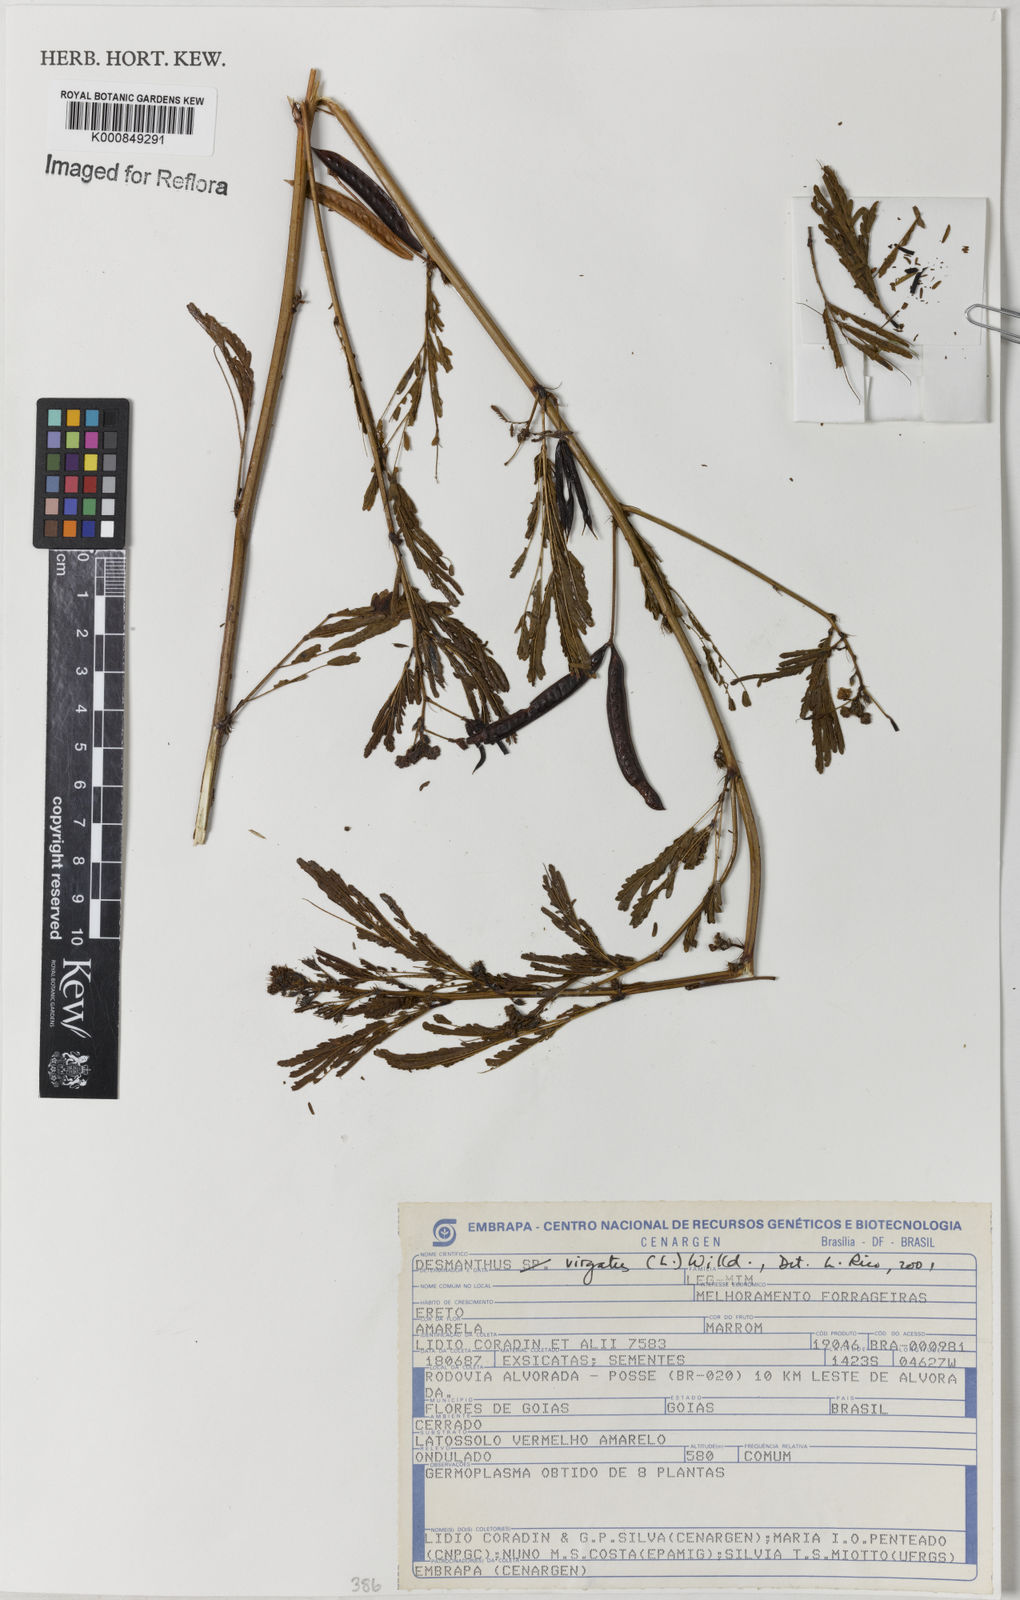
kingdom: Plantae
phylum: Tracheophyta
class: Magnoliopsida
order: Fabales
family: Fabaceae
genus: Desmanthus
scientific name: Desmanthus virgatus
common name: Wild tantan
